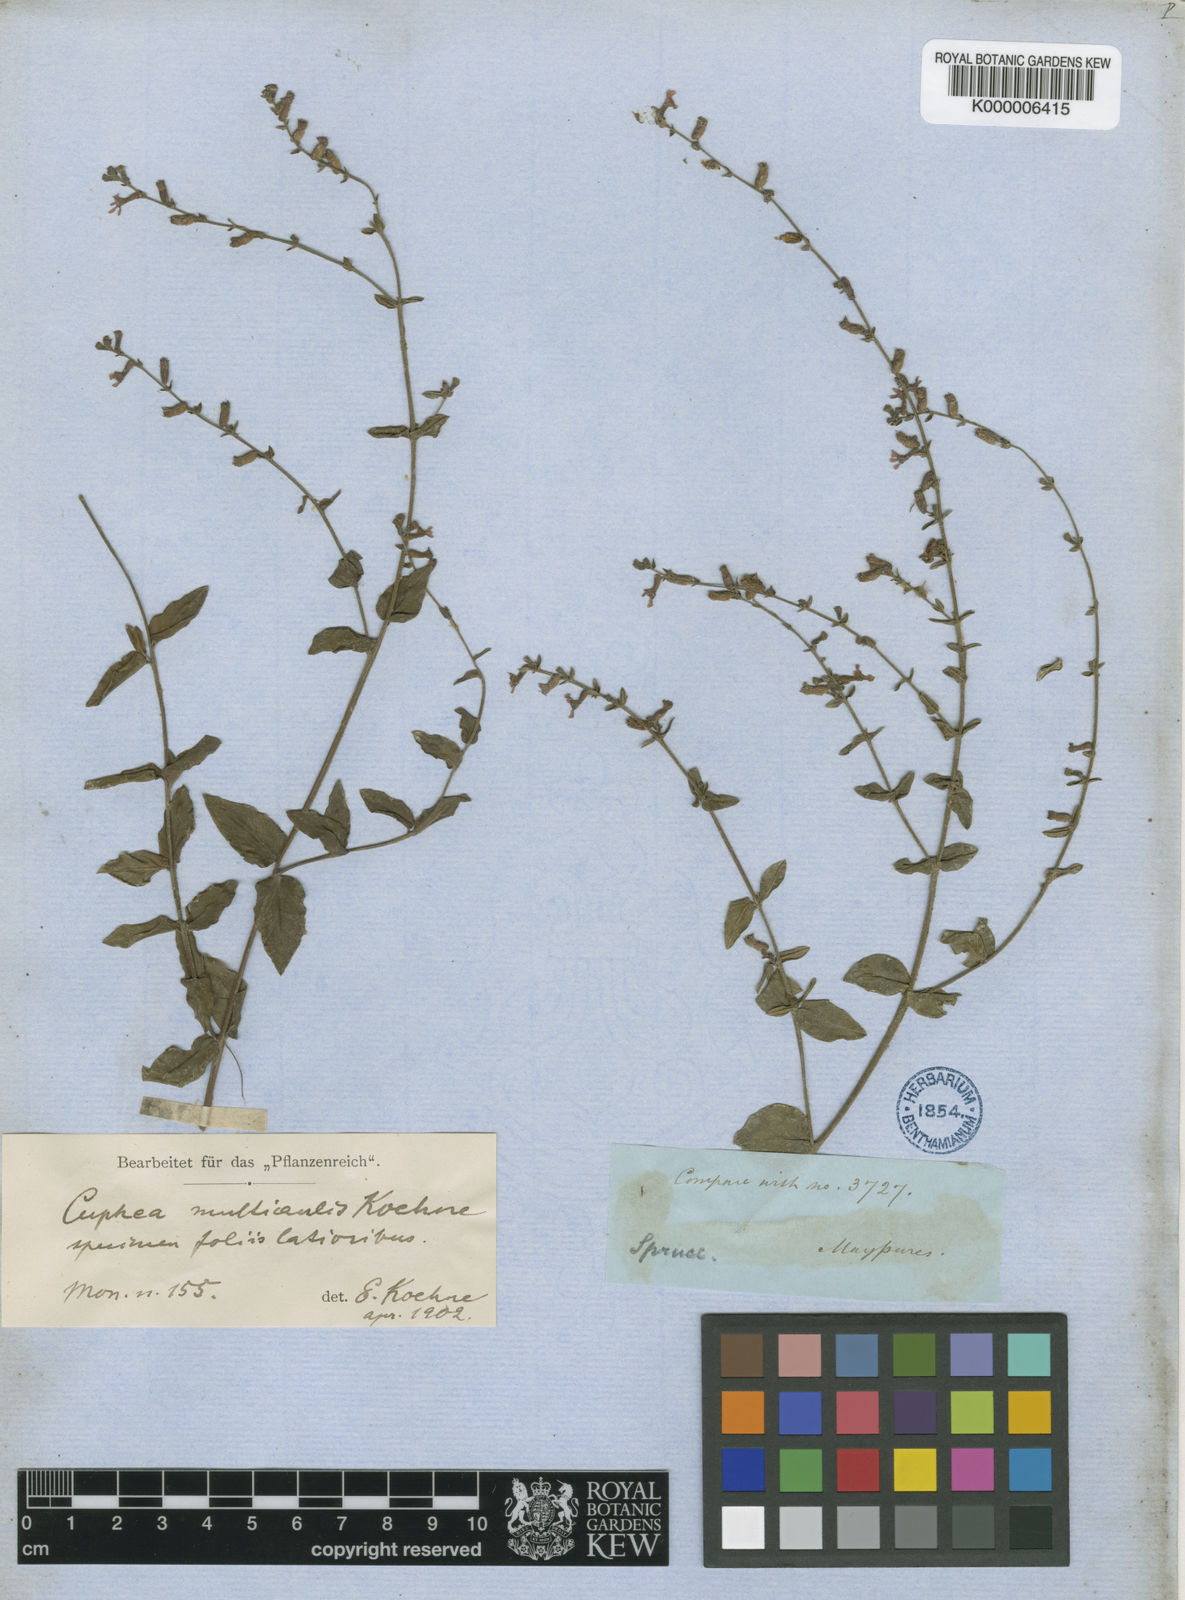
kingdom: Plantae
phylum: Tracheophyta
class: Magnoliopsida
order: Myrtales
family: Lythraceae
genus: Cuphea
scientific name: Cuphea
